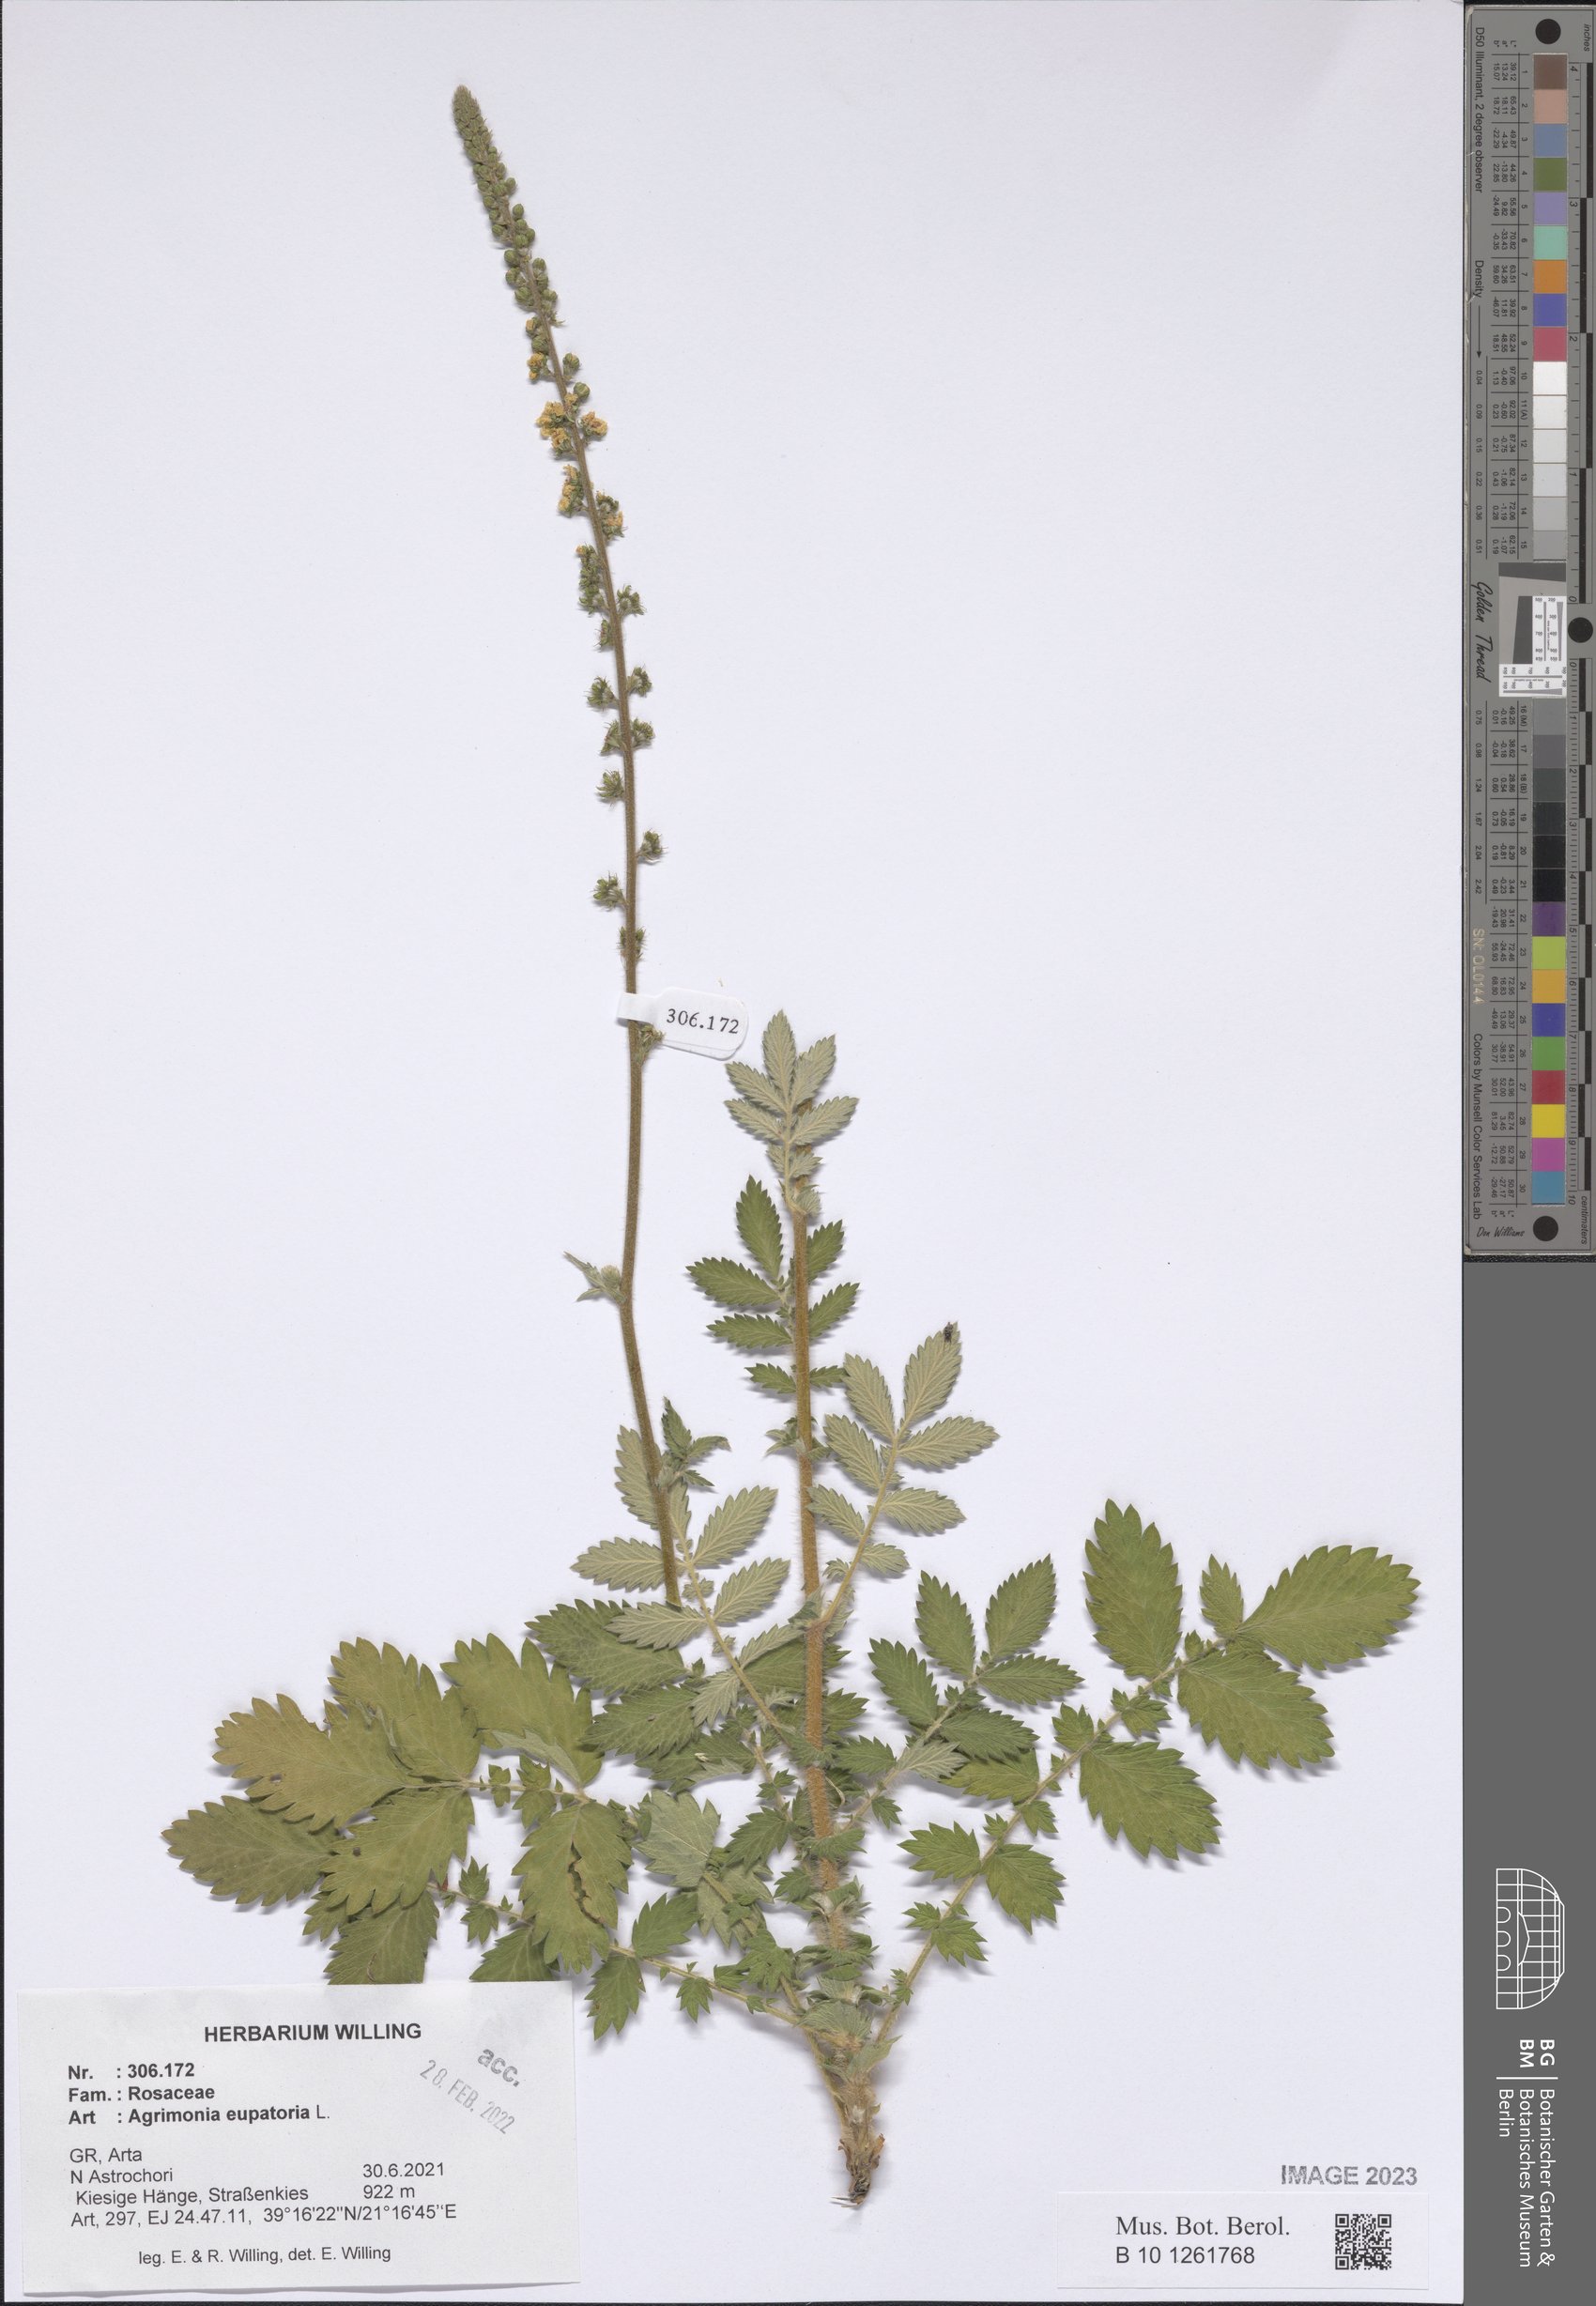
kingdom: Plantae
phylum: Tracheophyta
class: Magnoliopsida
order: Rosales
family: Rosaceae
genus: Agrimonia
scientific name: Agrimonia eupatoria
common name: Agrimony
